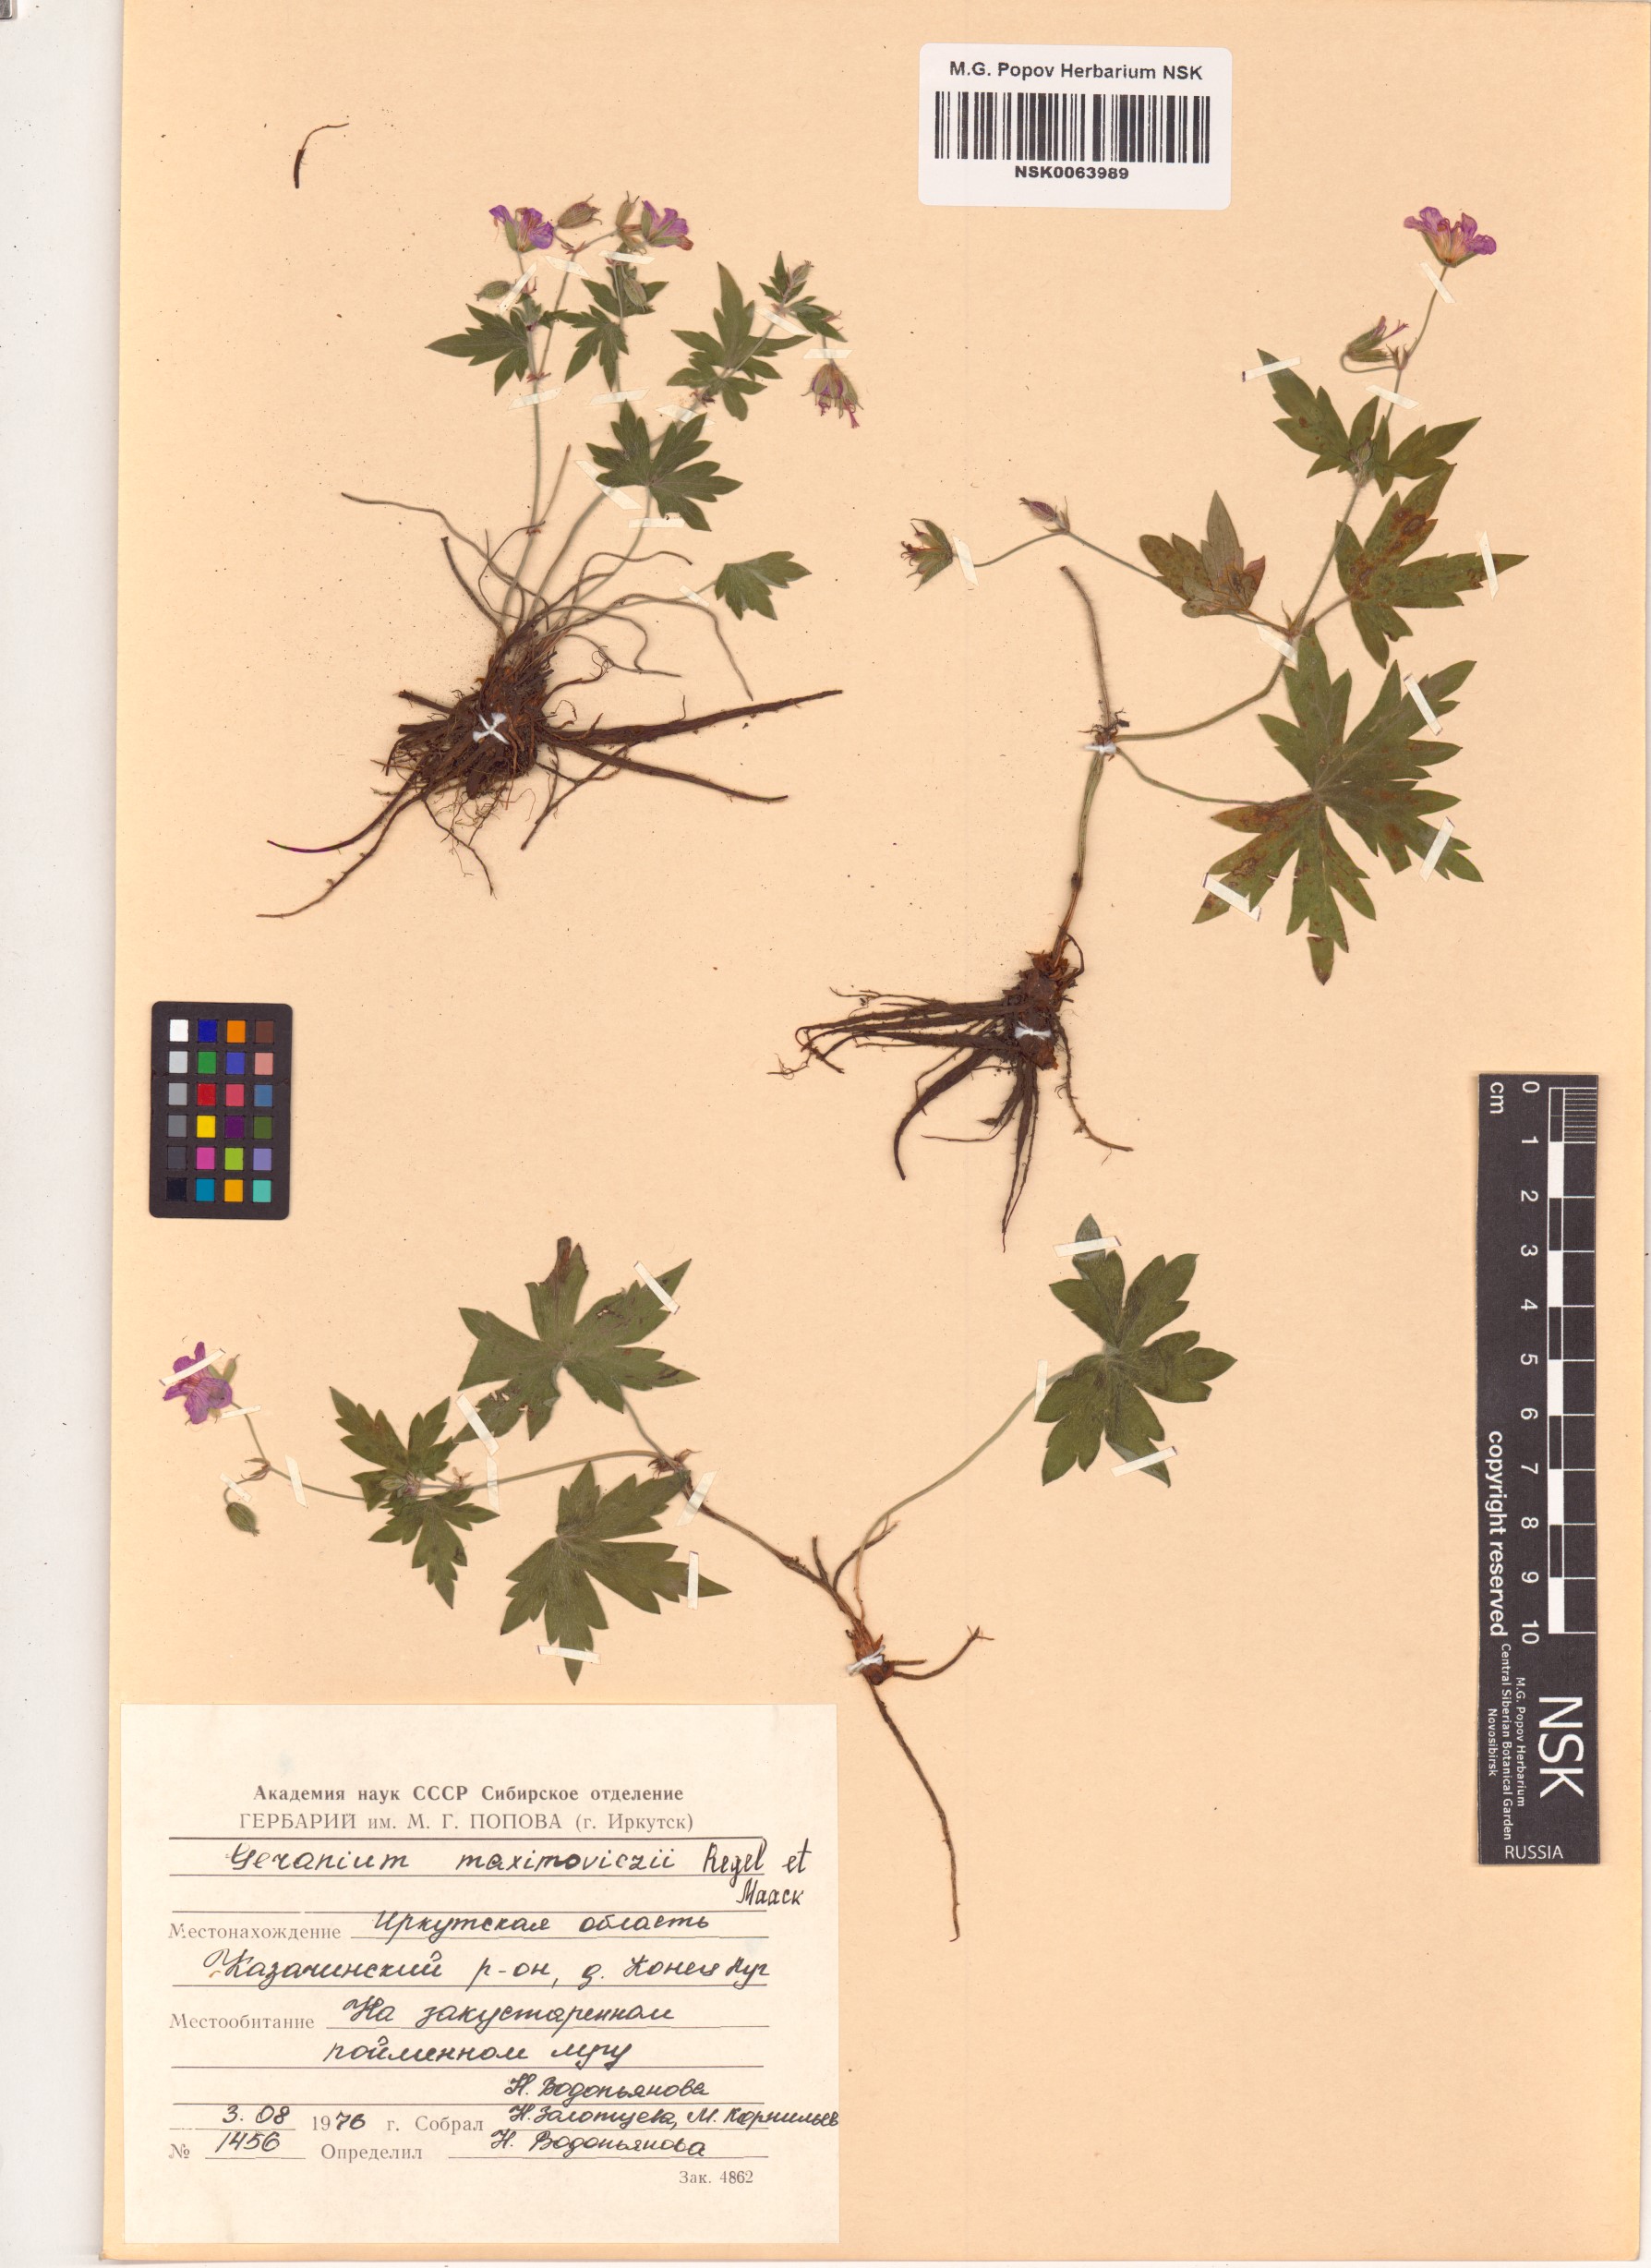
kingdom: Plantae
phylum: Tracheophyta
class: Magnoliopsida
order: Geraniales
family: Geraniaceae
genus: Geranium
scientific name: Geranium maximowiczii
